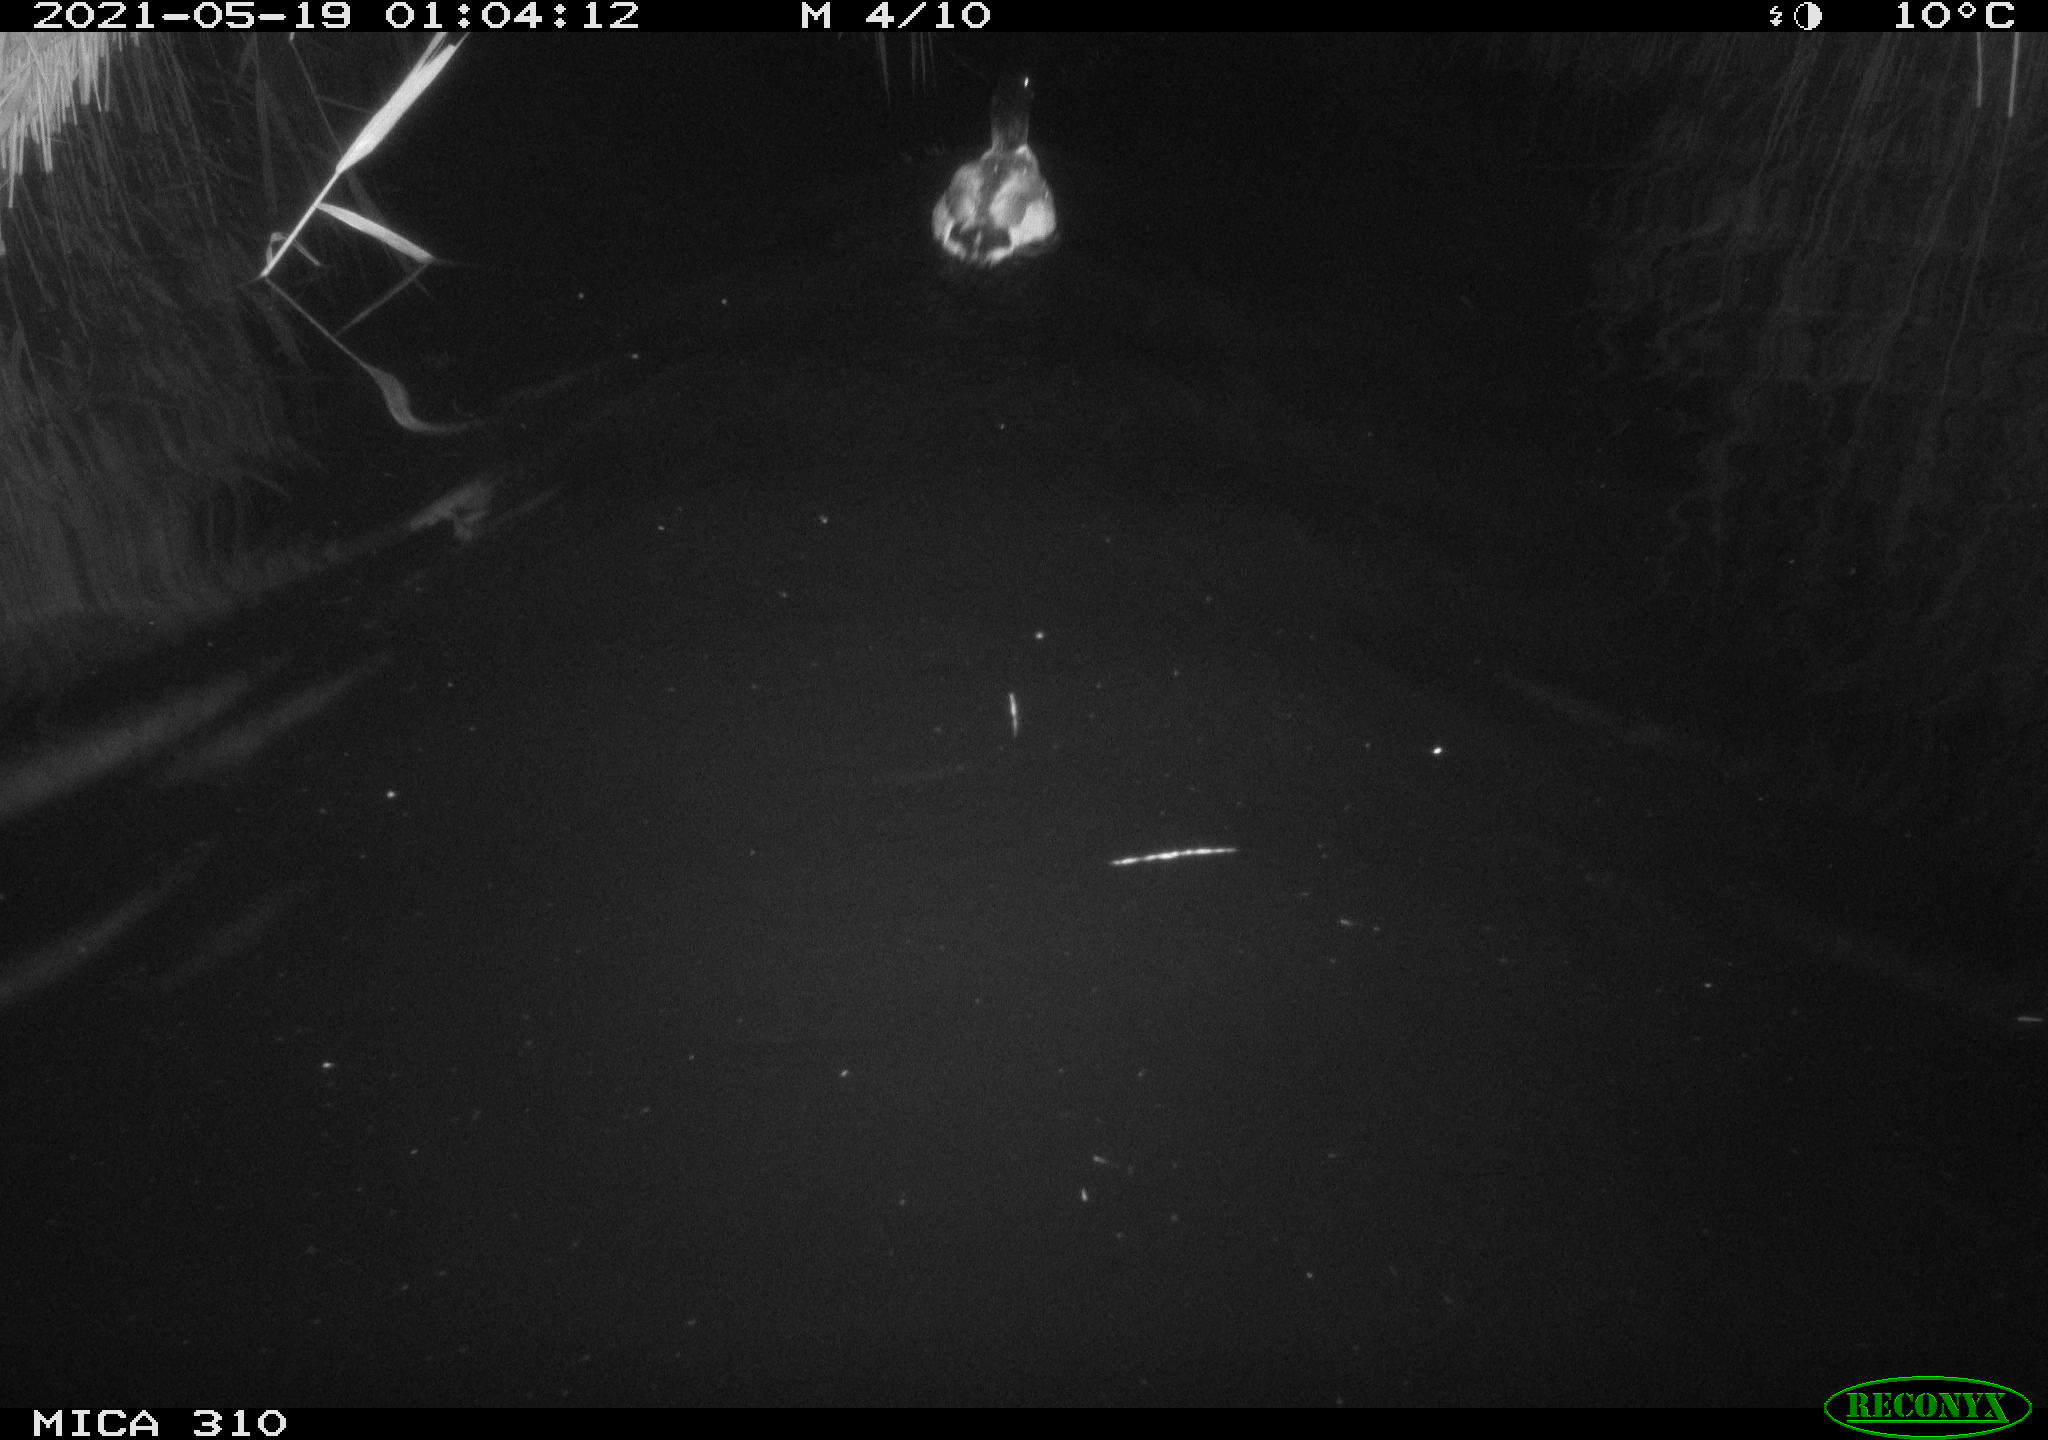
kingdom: Animalia
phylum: Chordata
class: Aves
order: Anseriformes
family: Anatidae
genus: Anas
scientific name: Anas platyrhynchos
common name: Mallard
